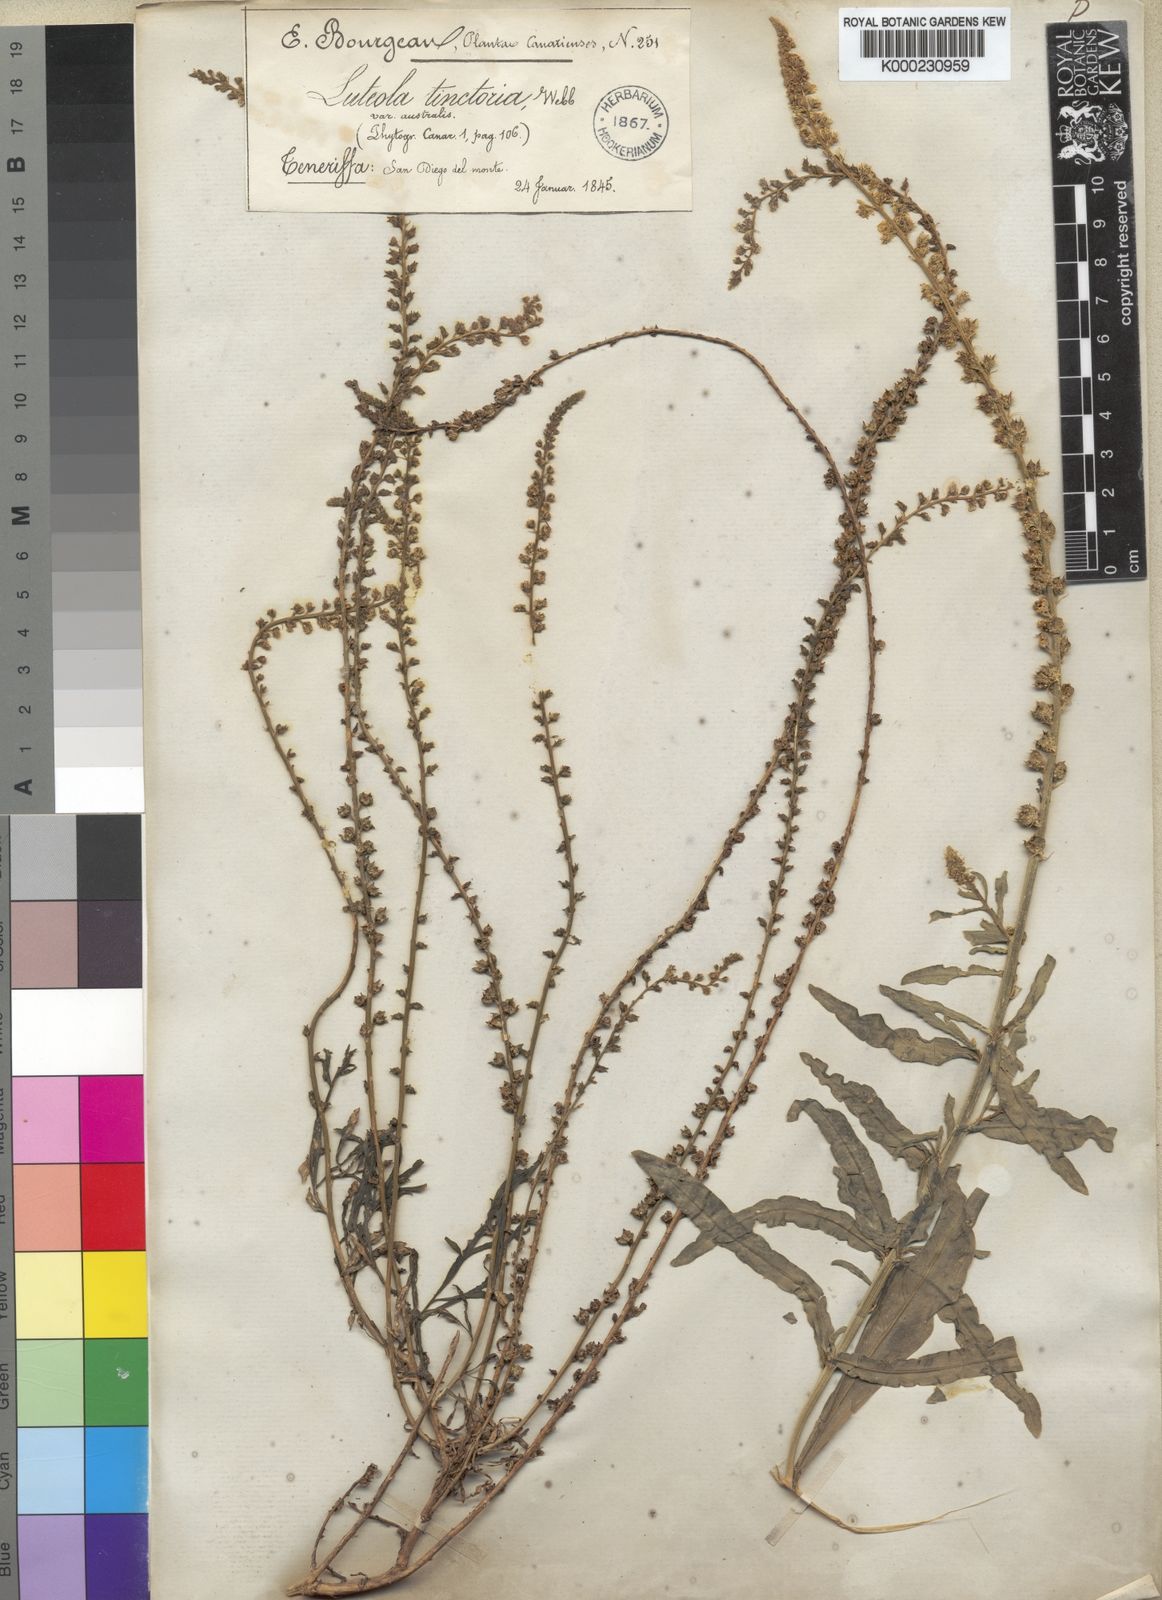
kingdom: Plantae
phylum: Tracheophyta
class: Magnoliopsida
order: Brassicales
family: Resedaceae
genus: Reseda
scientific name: Reseda luteola
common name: Weld
